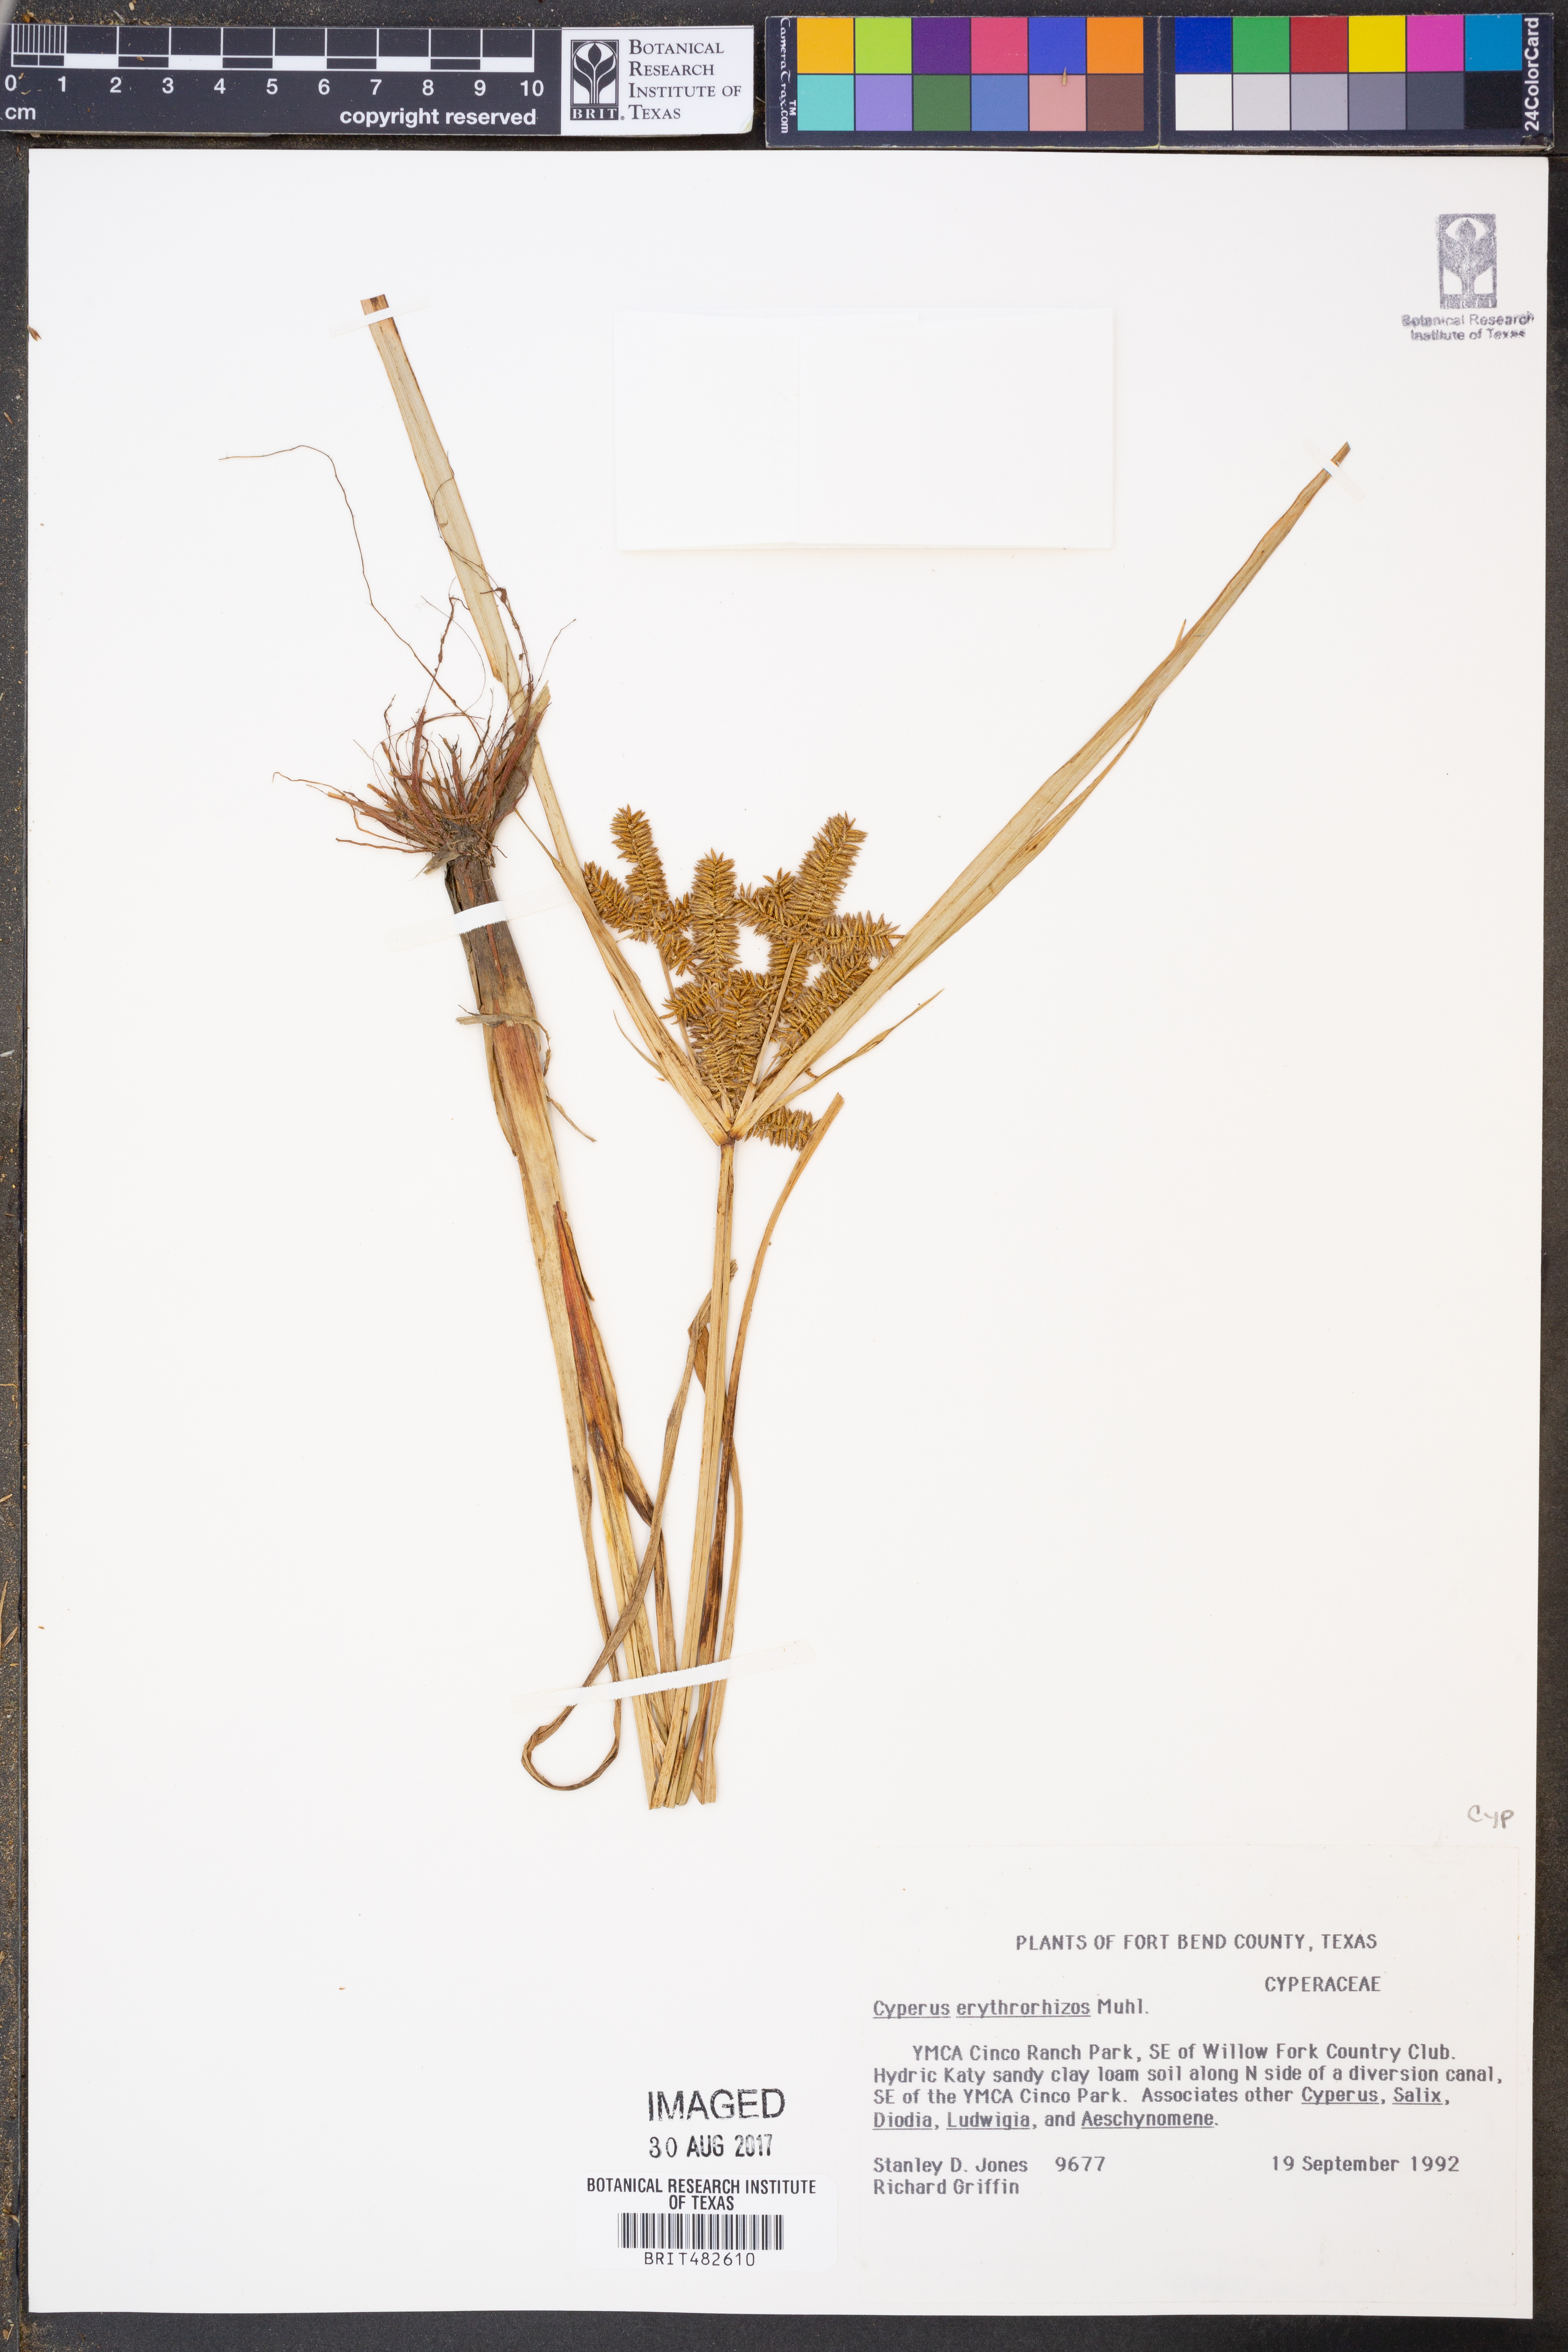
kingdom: Plantae
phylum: Tracheophyta
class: Liliopsida
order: Poales
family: Cyperaceae
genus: Cyperus
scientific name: Cyperus erythrorhizos
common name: Red-root flat sedge
